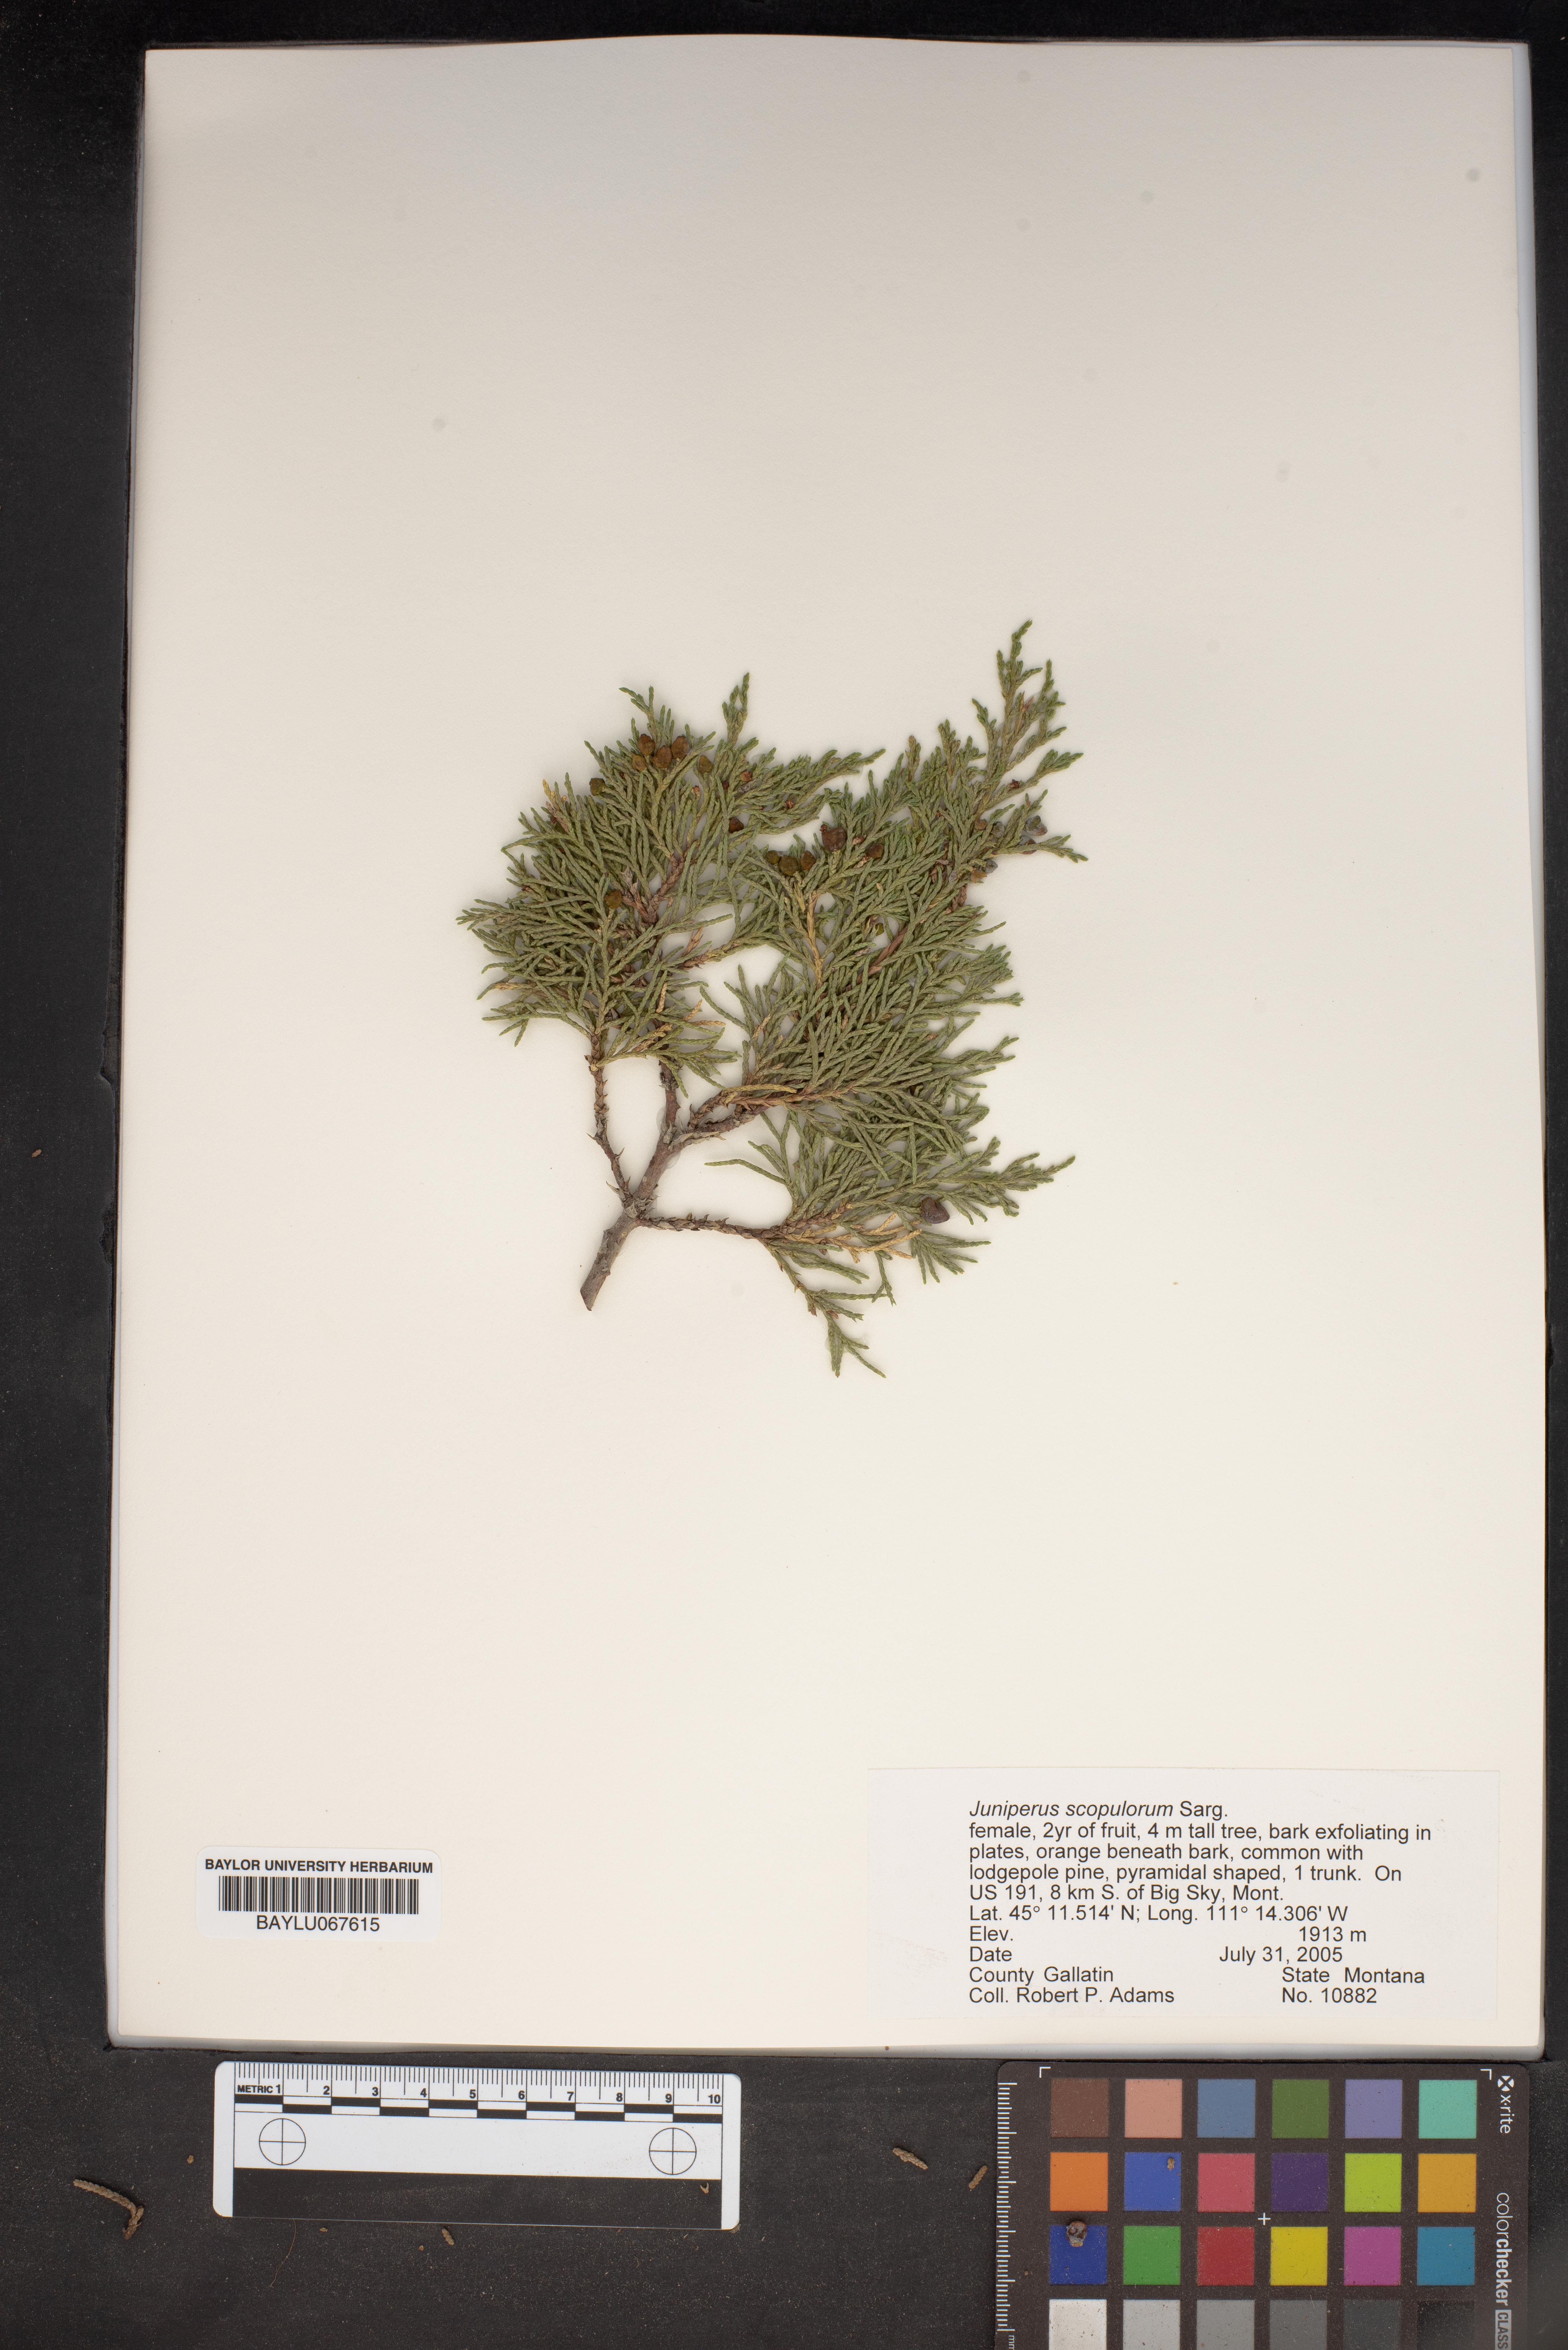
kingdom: Plantae
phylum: Tracheophyta
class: Pinopsida
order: Pinales
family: Cupressaceae
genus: Juniperus
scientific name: Juniperus scopulorum
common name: Rocky mountain juniper
